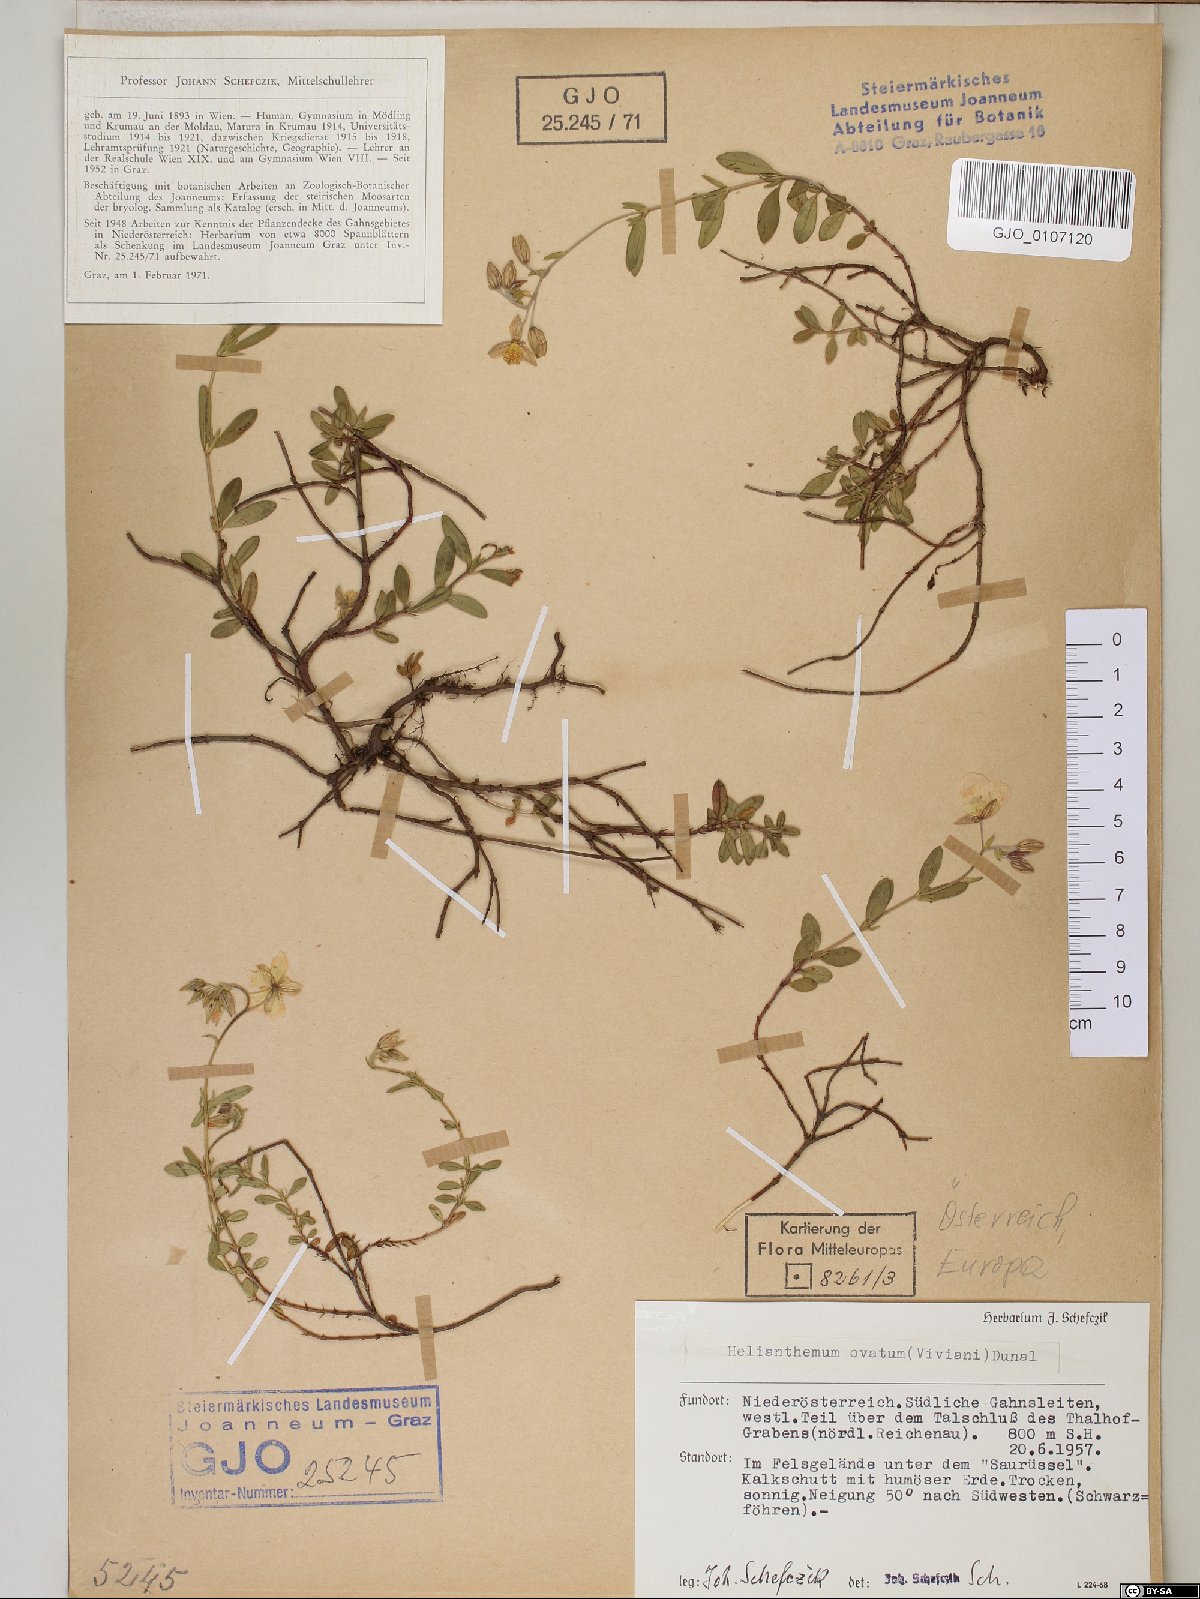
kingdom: Plantae
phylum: Tracheophyta
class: Magnoliopsida
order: Malvales
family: Cistaceae
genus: Helianthemum
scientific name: Helianthemum nummularium
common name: Common rock-rose
